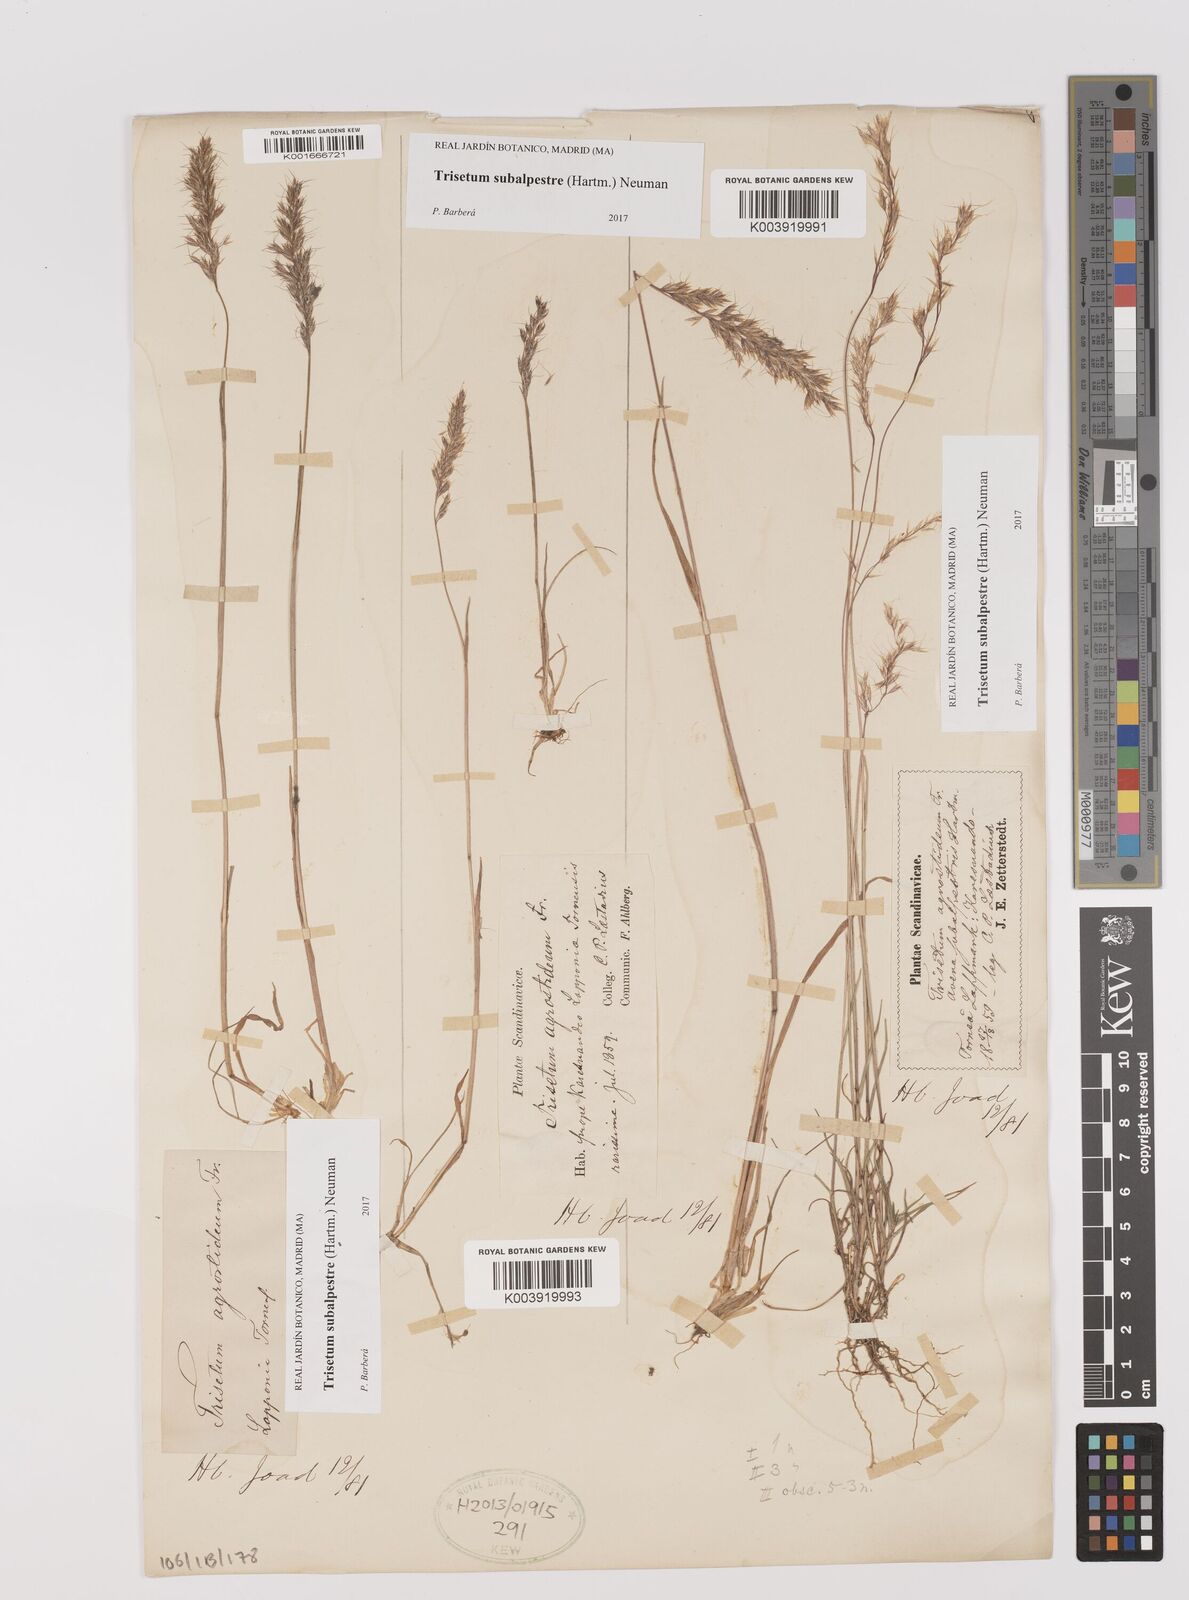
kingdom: Plantae
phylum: Tracheophyta
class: Liliopsida
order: Poales
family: Poaceae
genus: Koeleria
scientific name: Koeleria subalpestris
